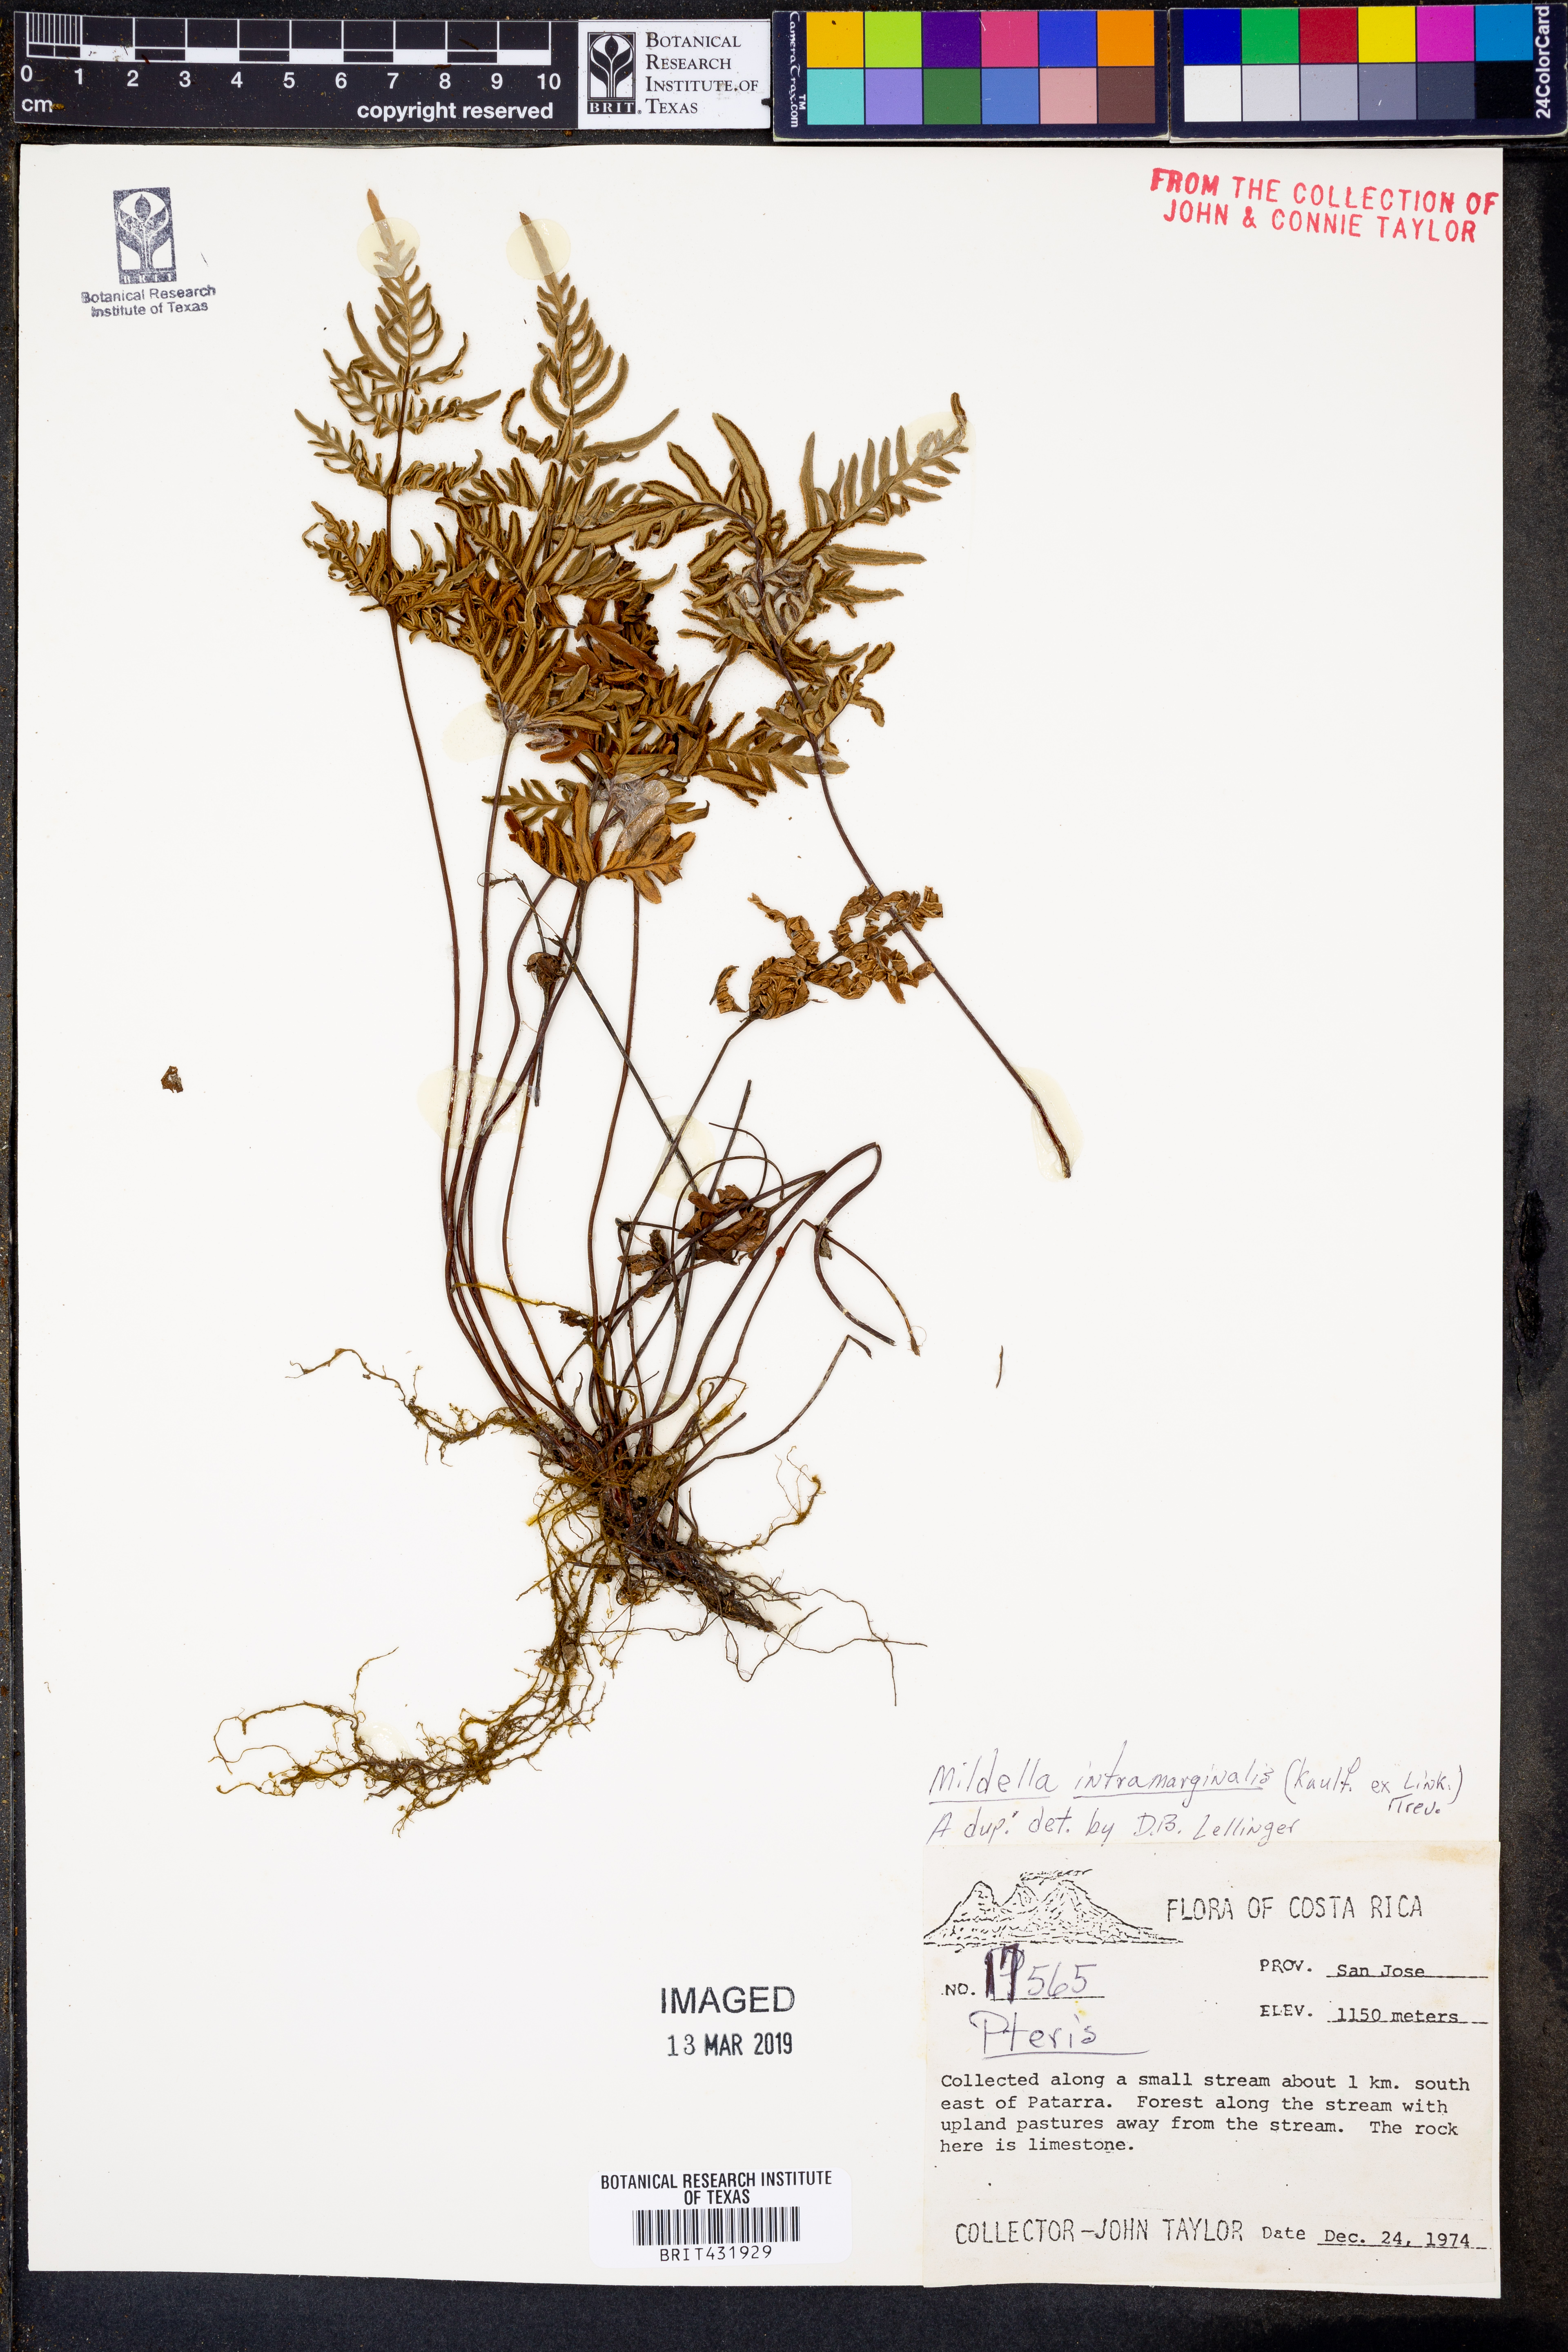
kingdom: Plantae
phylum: Tracheophyta
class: Polypodiopsida
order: Polypodiales
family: Pteridaceae
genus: Mildella
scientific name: Mildella intramarginalis
